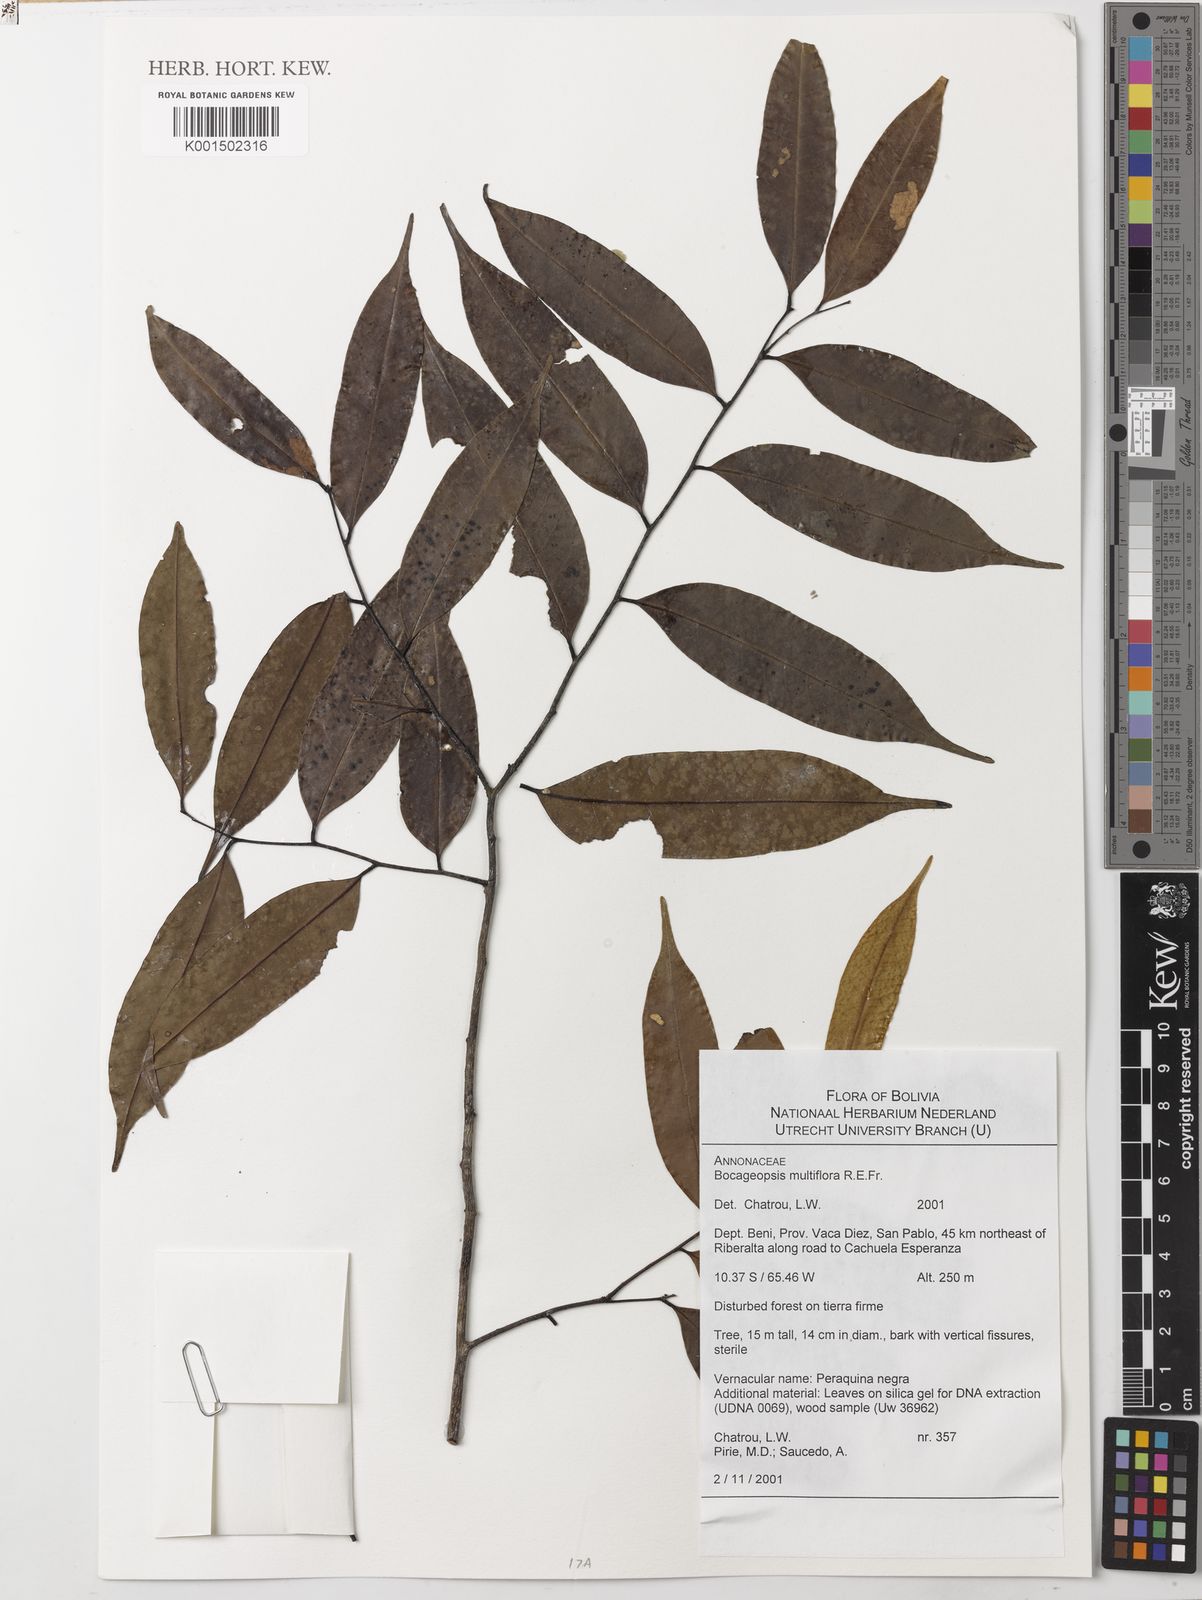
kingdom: Plantae
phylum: Tracheophyta
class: Magnoliopsida
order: Magnoliales
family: Annonaceae
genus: Bocageopsis
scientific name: Bocageopsis multiflora
